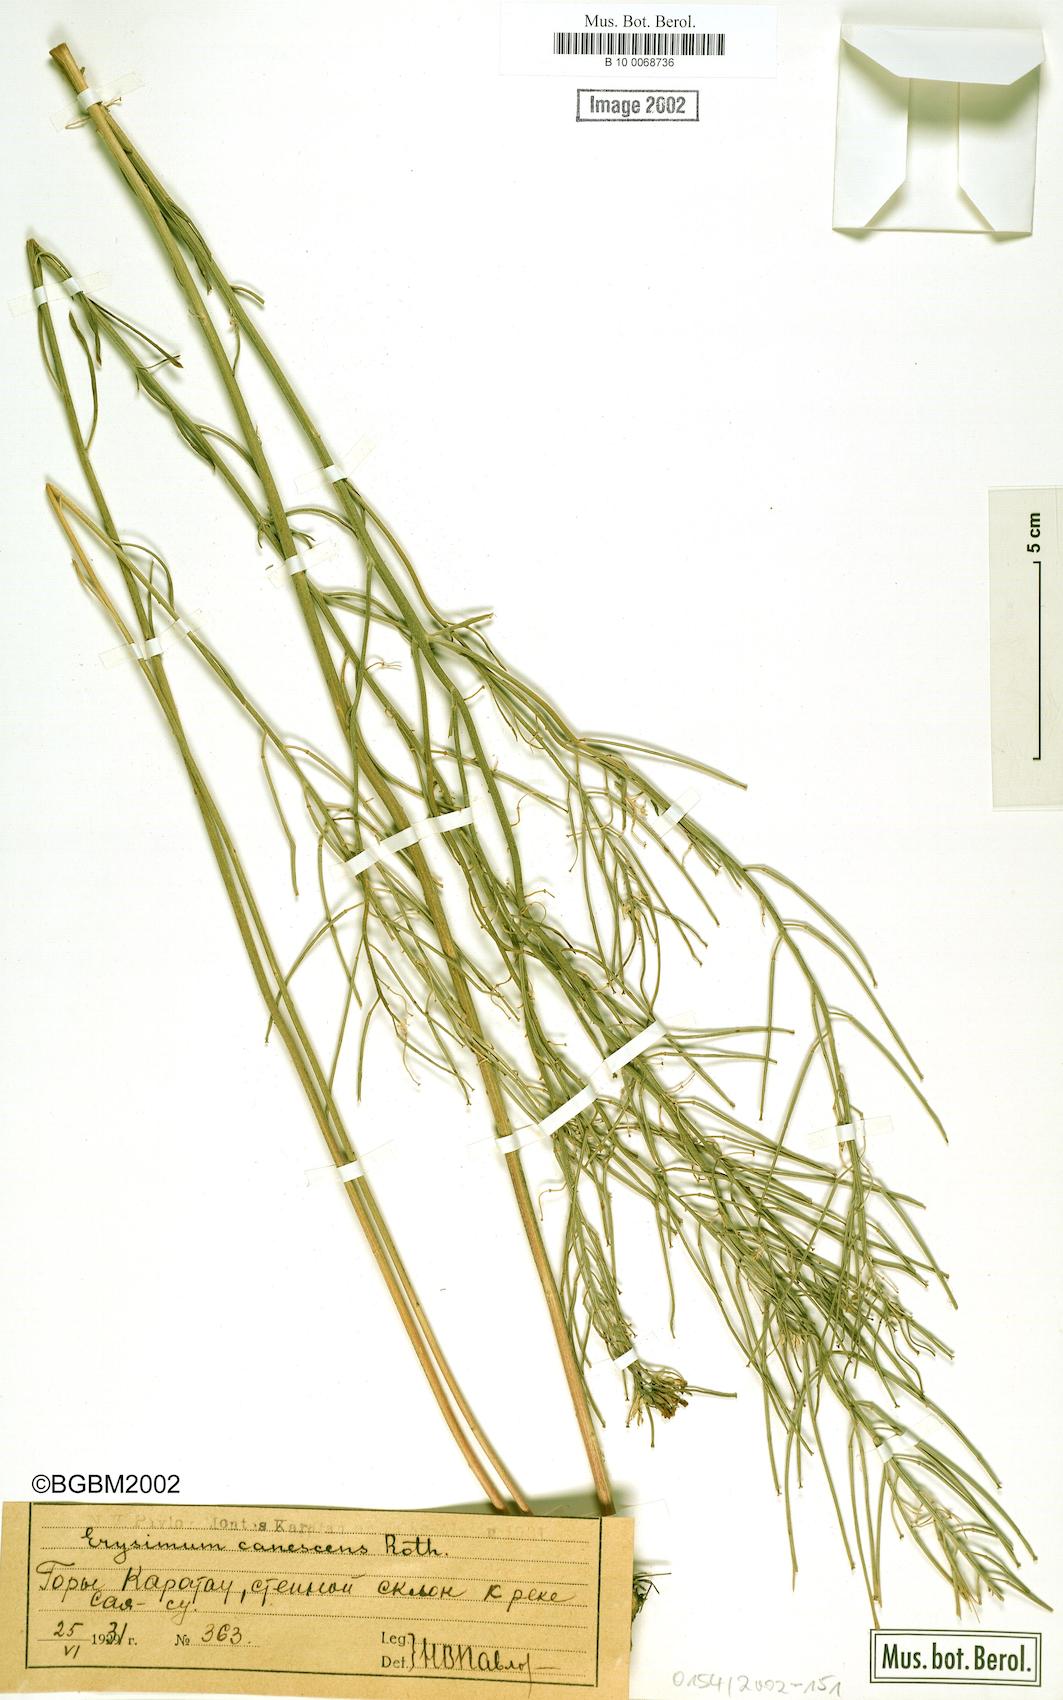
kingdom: Plantae
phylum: Tracheophyta
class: Magnoliopsida
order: Brassicales
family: Brassicaceae
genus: Erysimum
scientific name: Erysimum diffusum
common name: Diffuse wallflower
